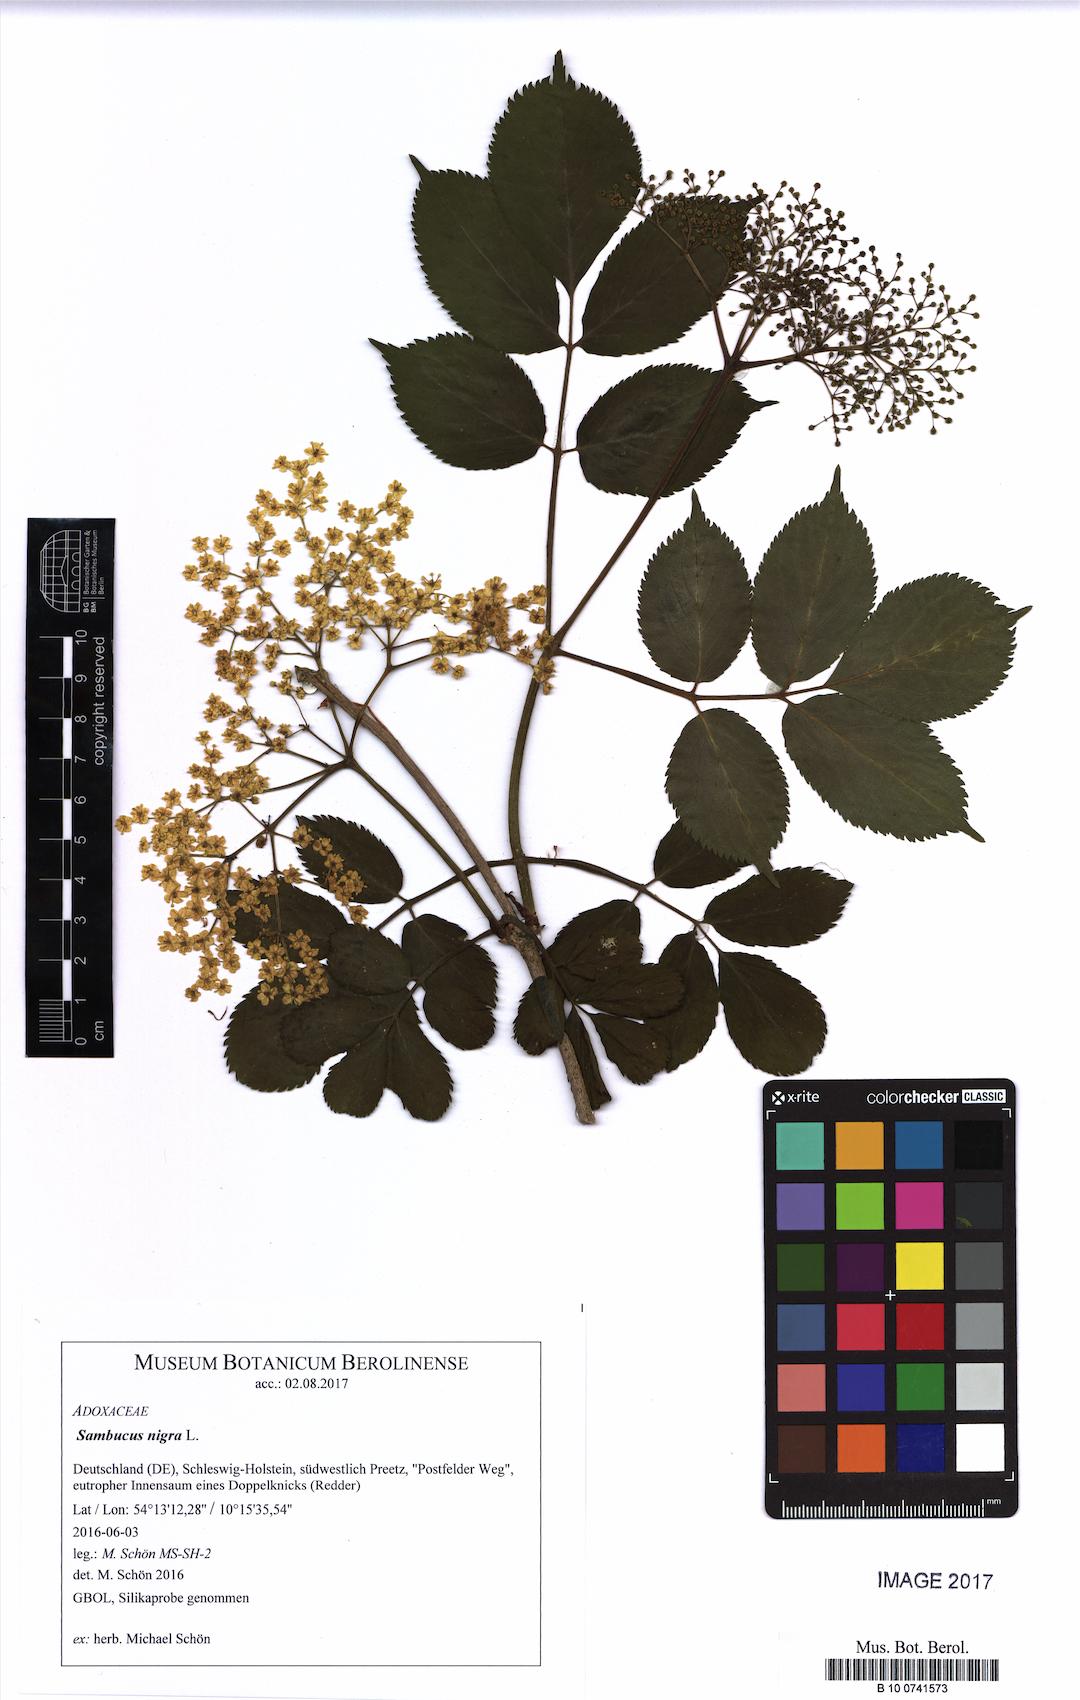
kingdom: Plantae
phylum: Tracheophyta
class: Magnoliopsida
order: Dipsacales
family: Viburnaceae
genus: Sambucus
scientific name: Sambucus nigra
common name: Elder
